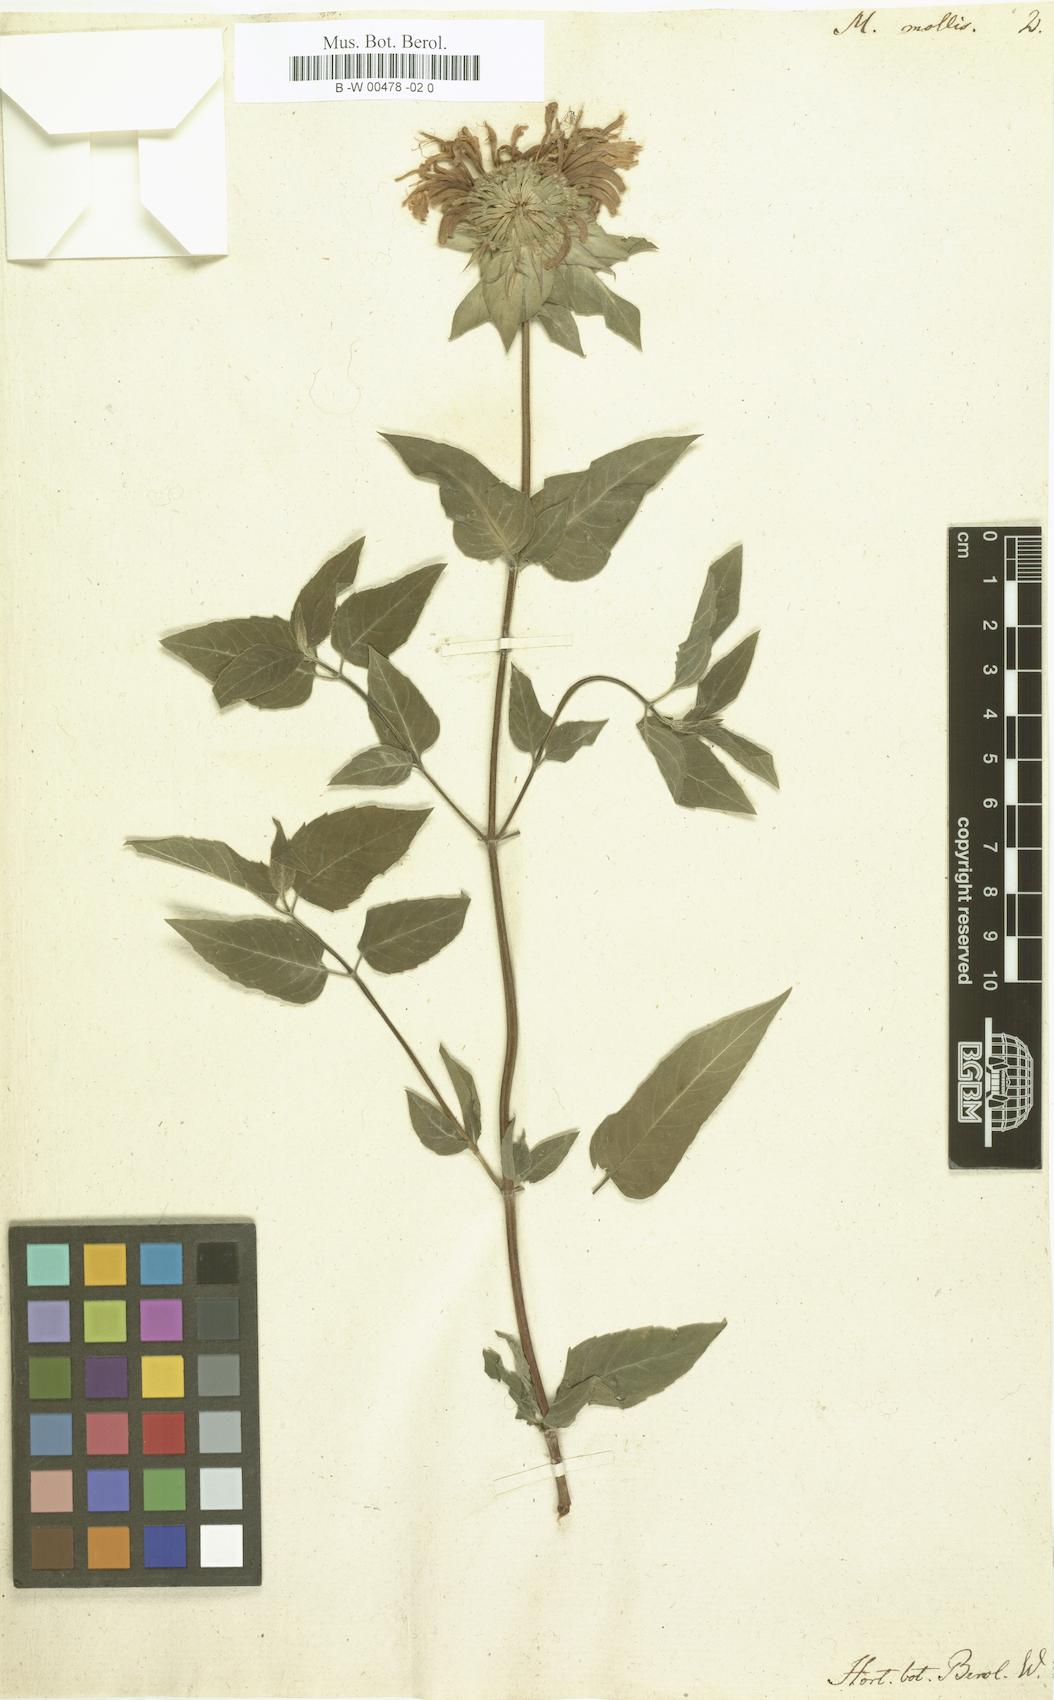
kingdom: Plantae
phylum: Tracheophyta
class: Magnoliopsida
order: Lamiales
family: Lamiaceae
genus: Monarda
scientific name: Monarda fistulosa
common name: Purple beebalm
